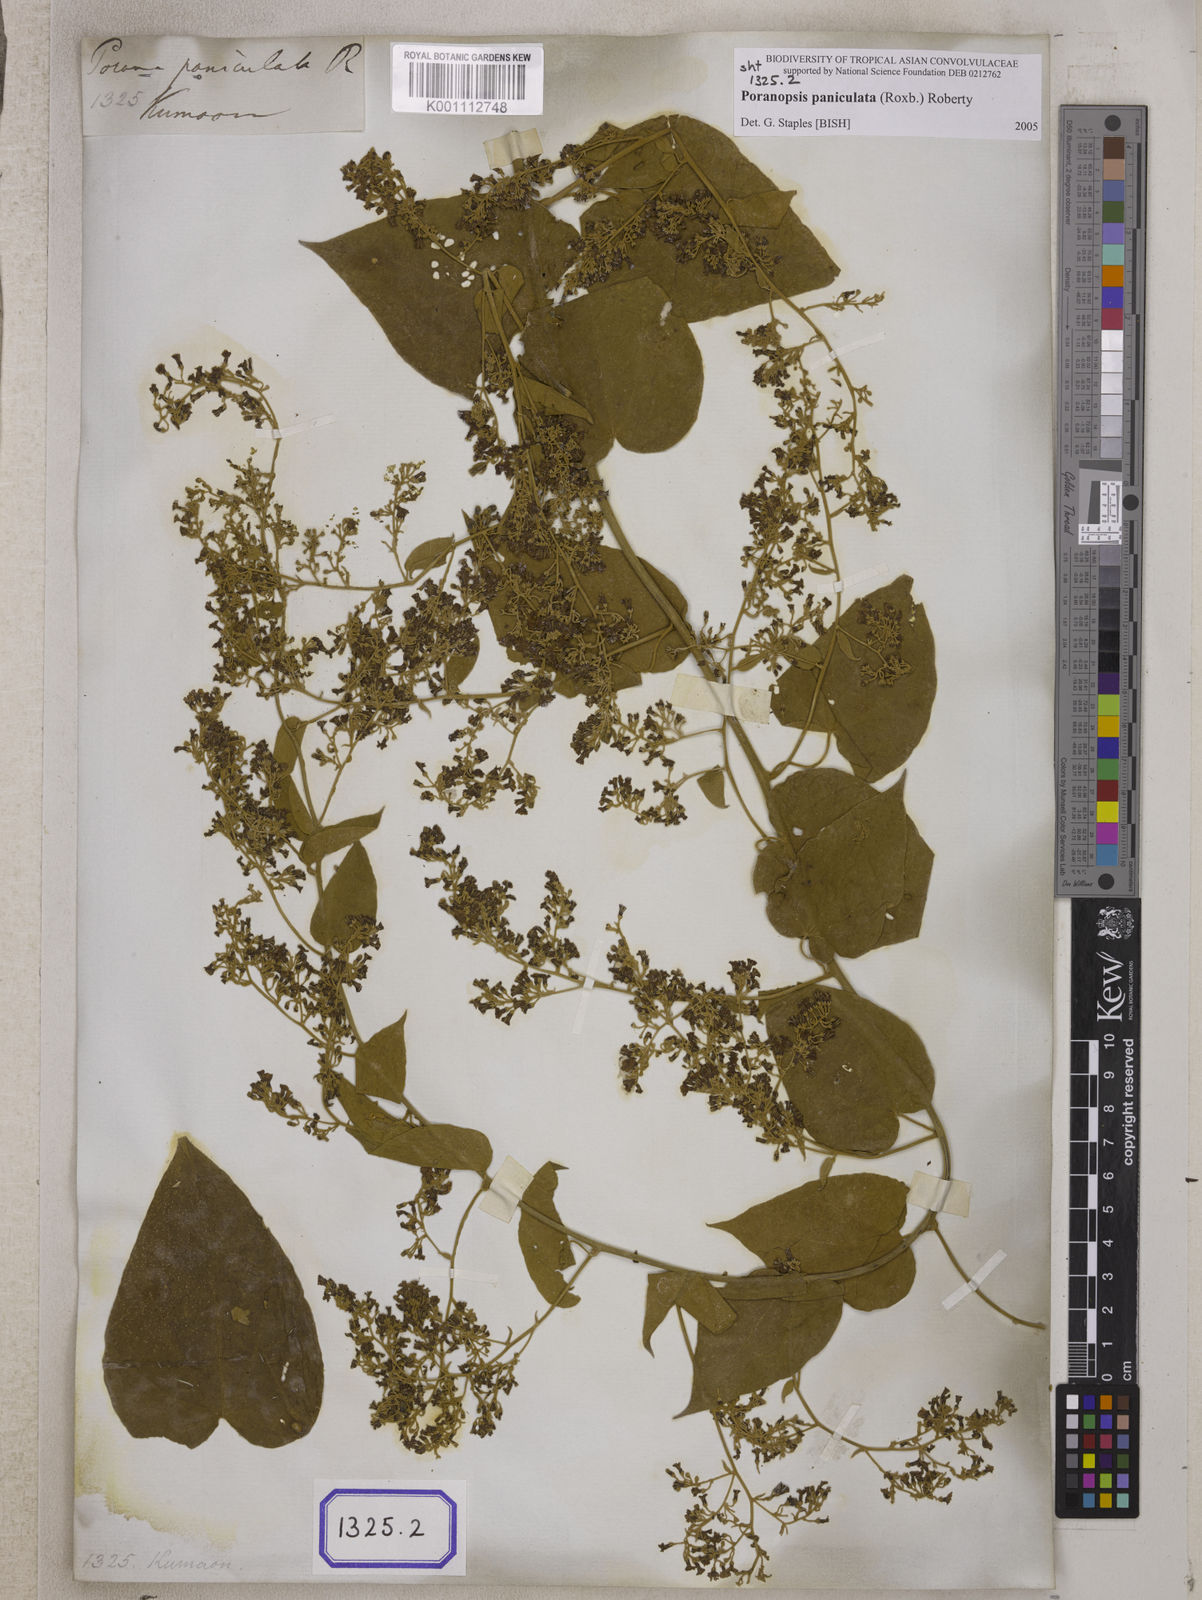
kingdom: Plantae
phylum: Tracheophyta
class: Magnoliopsida
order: Solanales
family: Convolvulaceae
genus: Poranopsis
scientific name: Poranopsis paniculata
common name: Bridal bouquet
